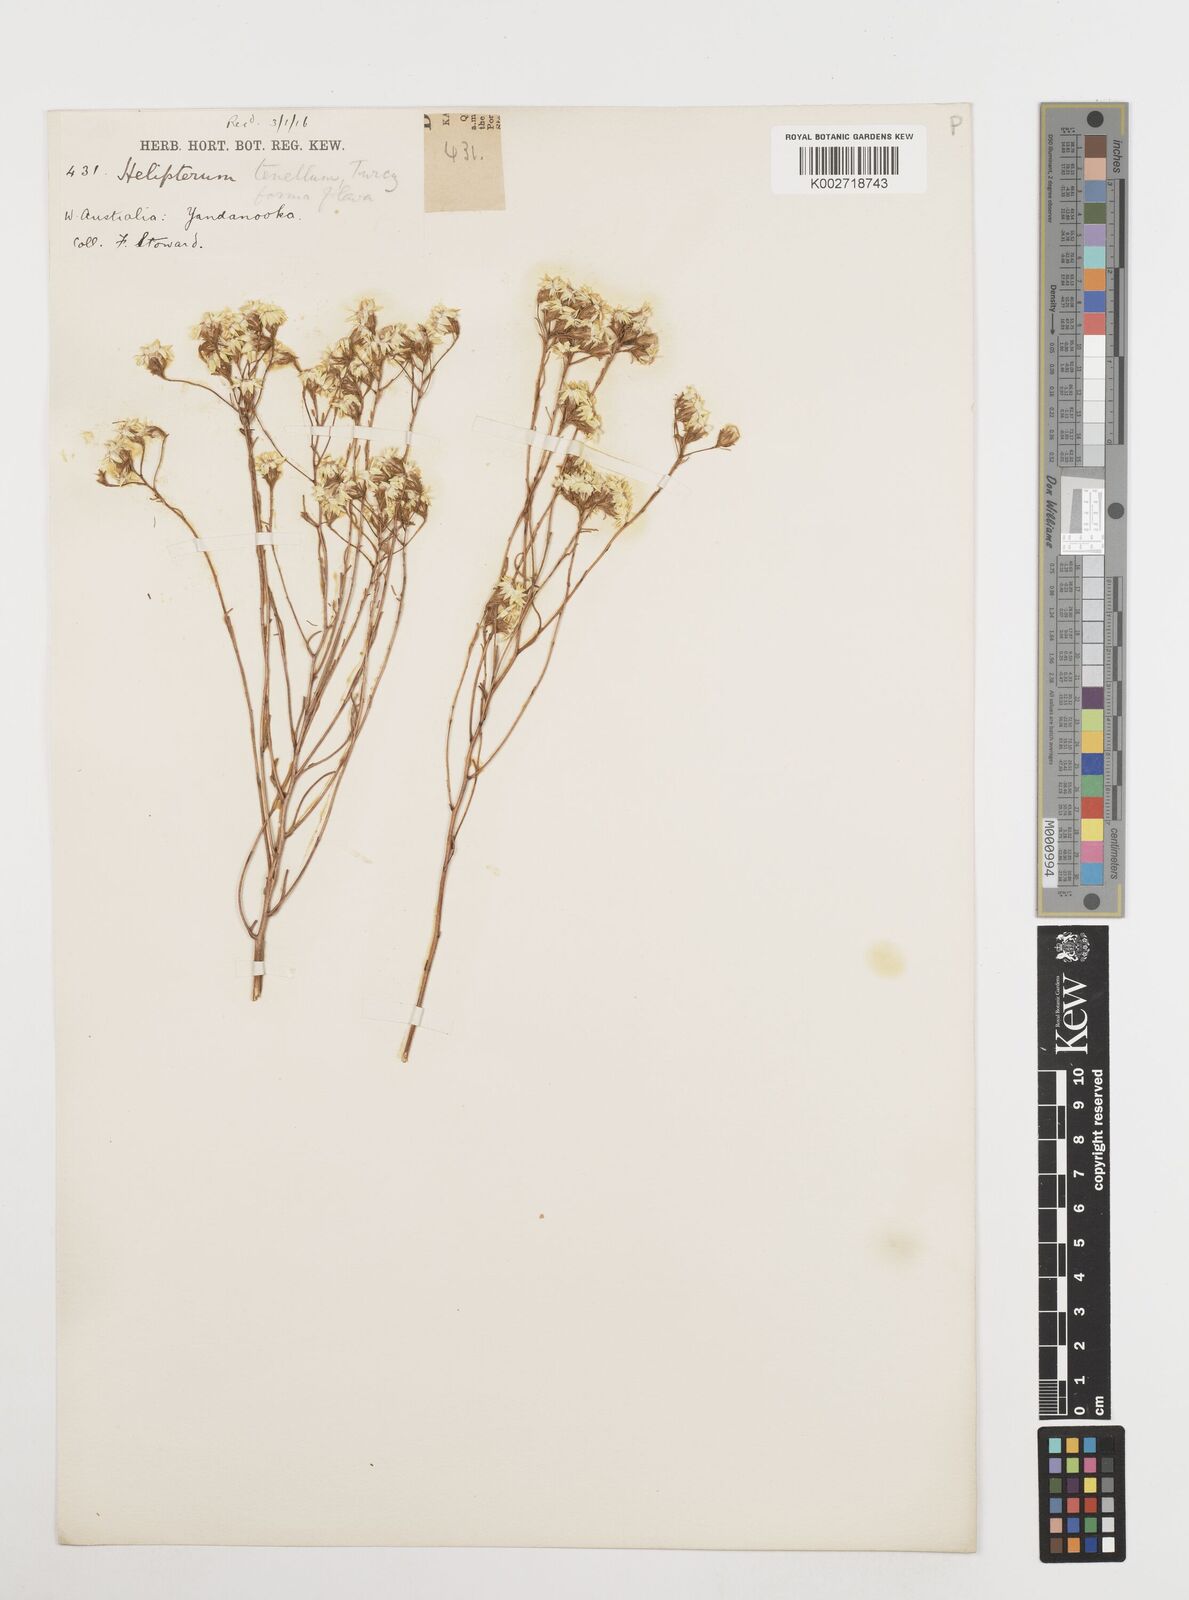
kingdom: Plantae
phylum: Tracheophyta
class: Magnoliopsida
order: Asterales
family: Asteraceae
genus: Erymophyllum
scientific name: Erymophyllum tenellum
